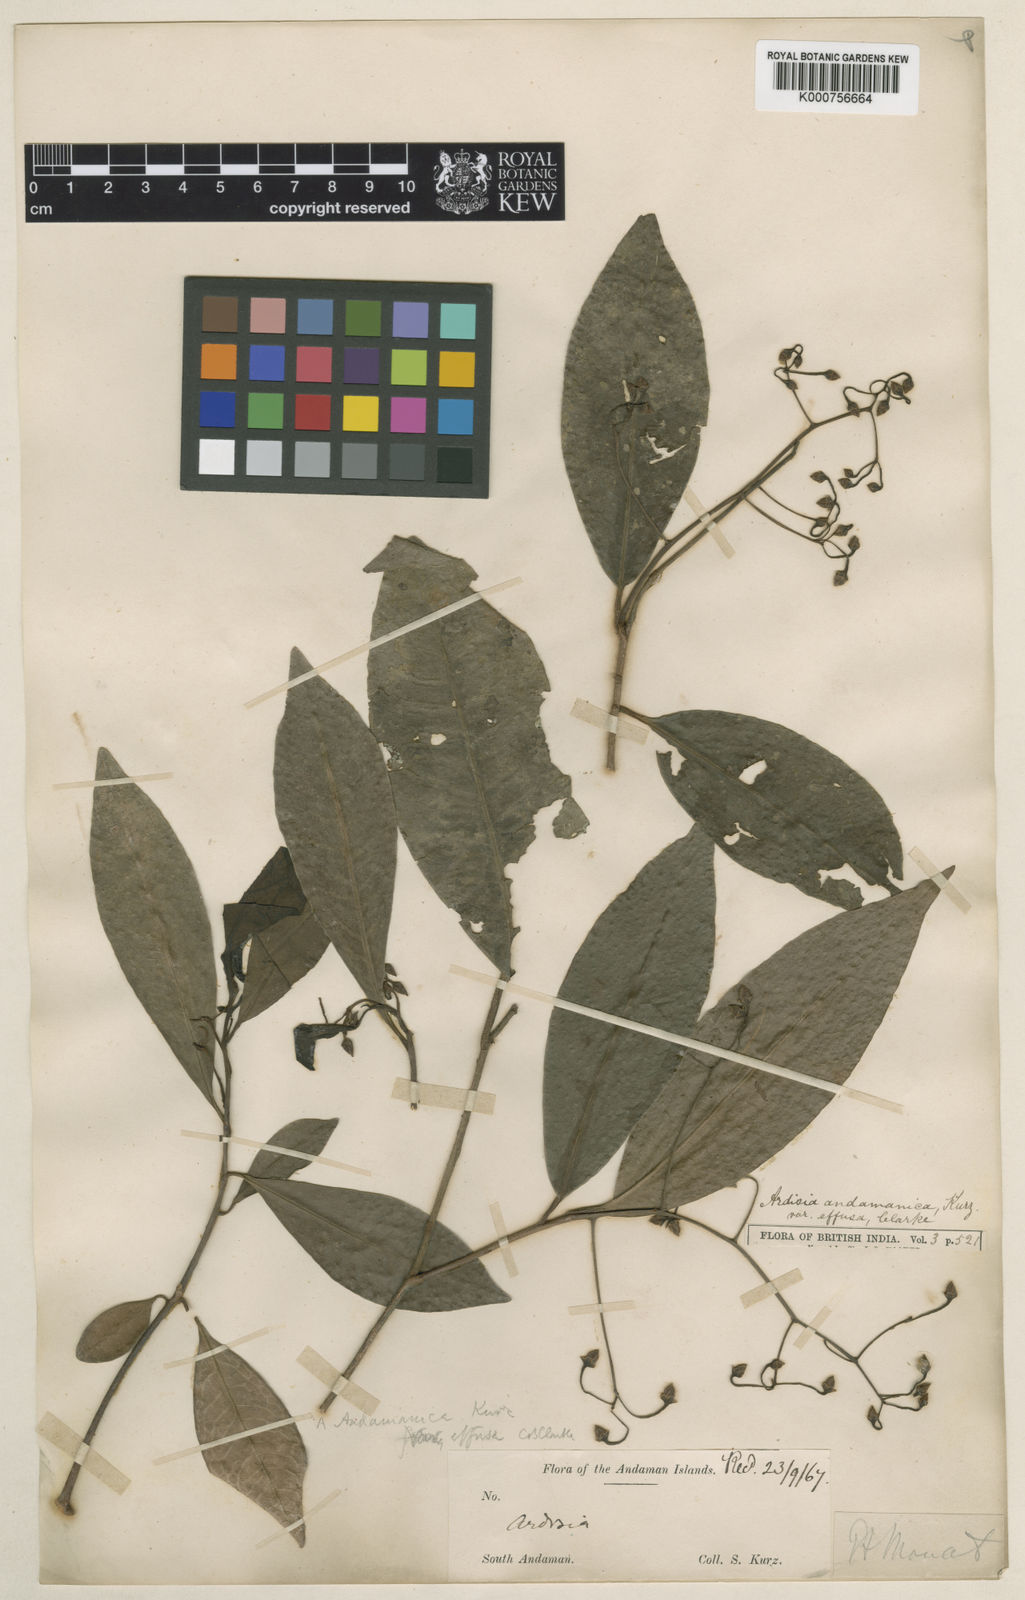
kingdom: Plantae
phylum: Tracheophyta
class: Magnoliopsida
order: Ericales
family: Primulaceae
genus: Ardisia
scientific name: Ardisia andamanica
